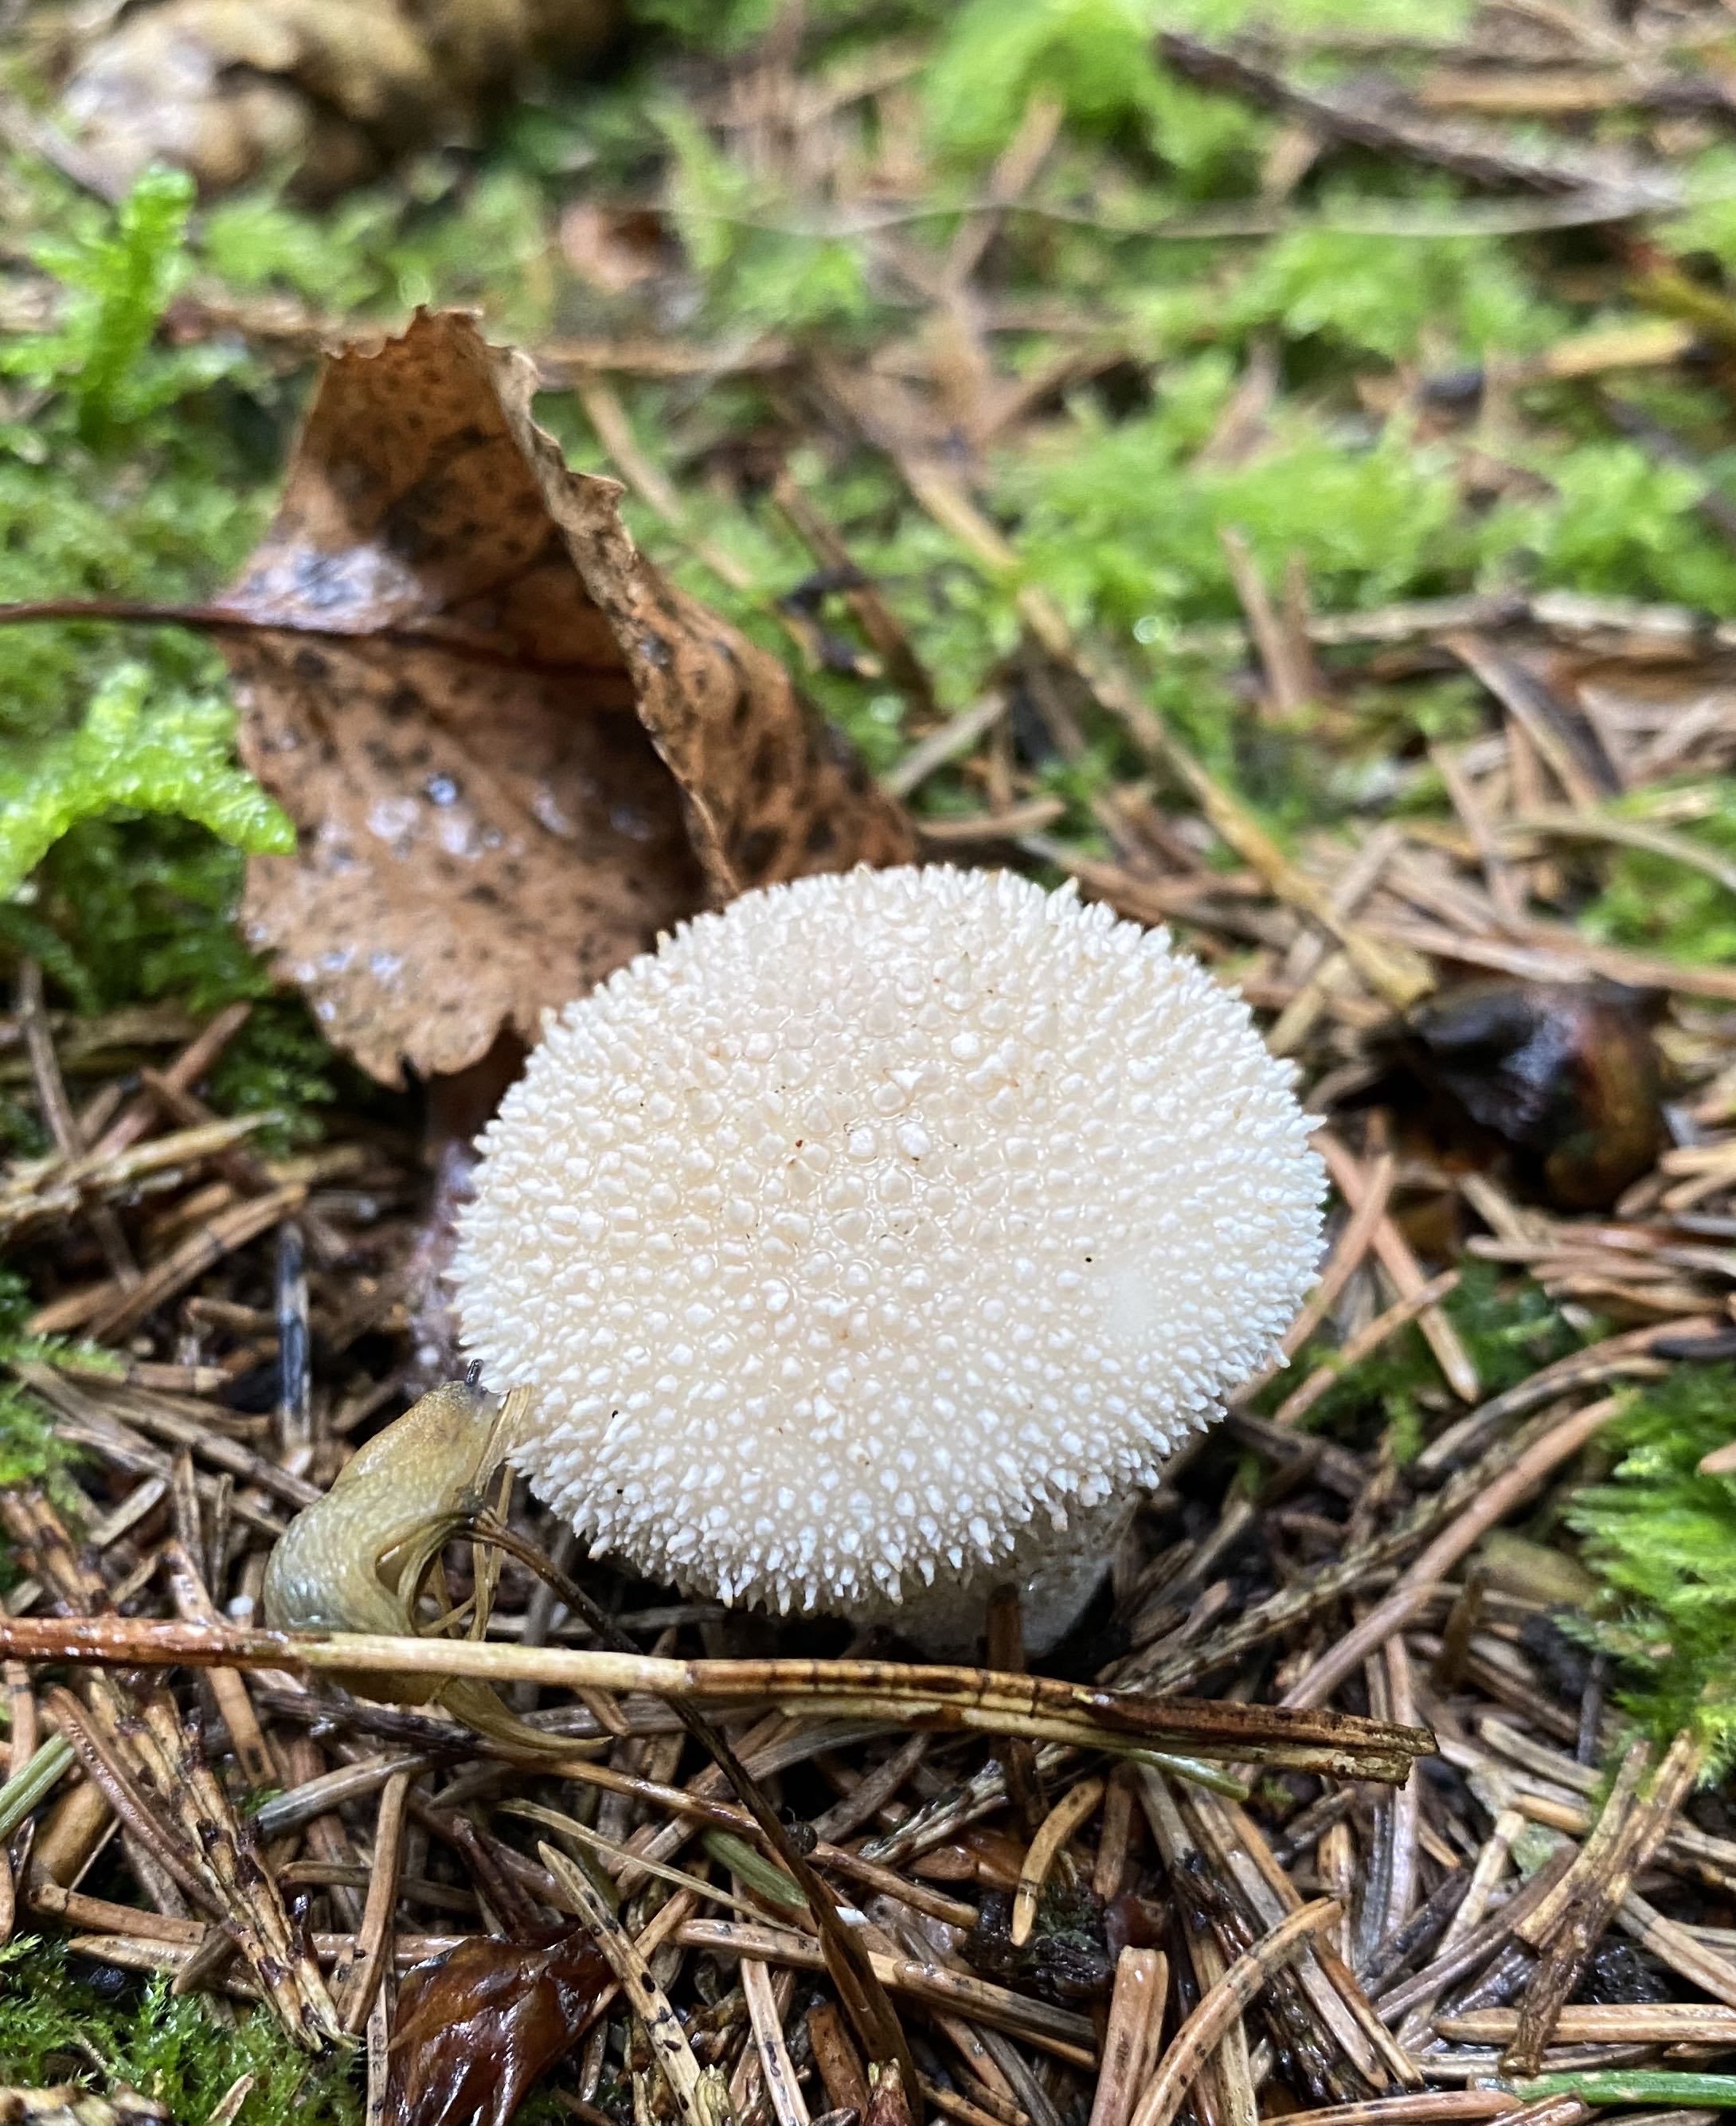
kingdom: Fungi
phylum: Basidiomycota
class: Agaricomycetes
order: Agaricales
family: Lycoperdaceae
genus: Lycoperdon
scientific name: Lycoperdon perlatum
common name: krystal-støvbold
